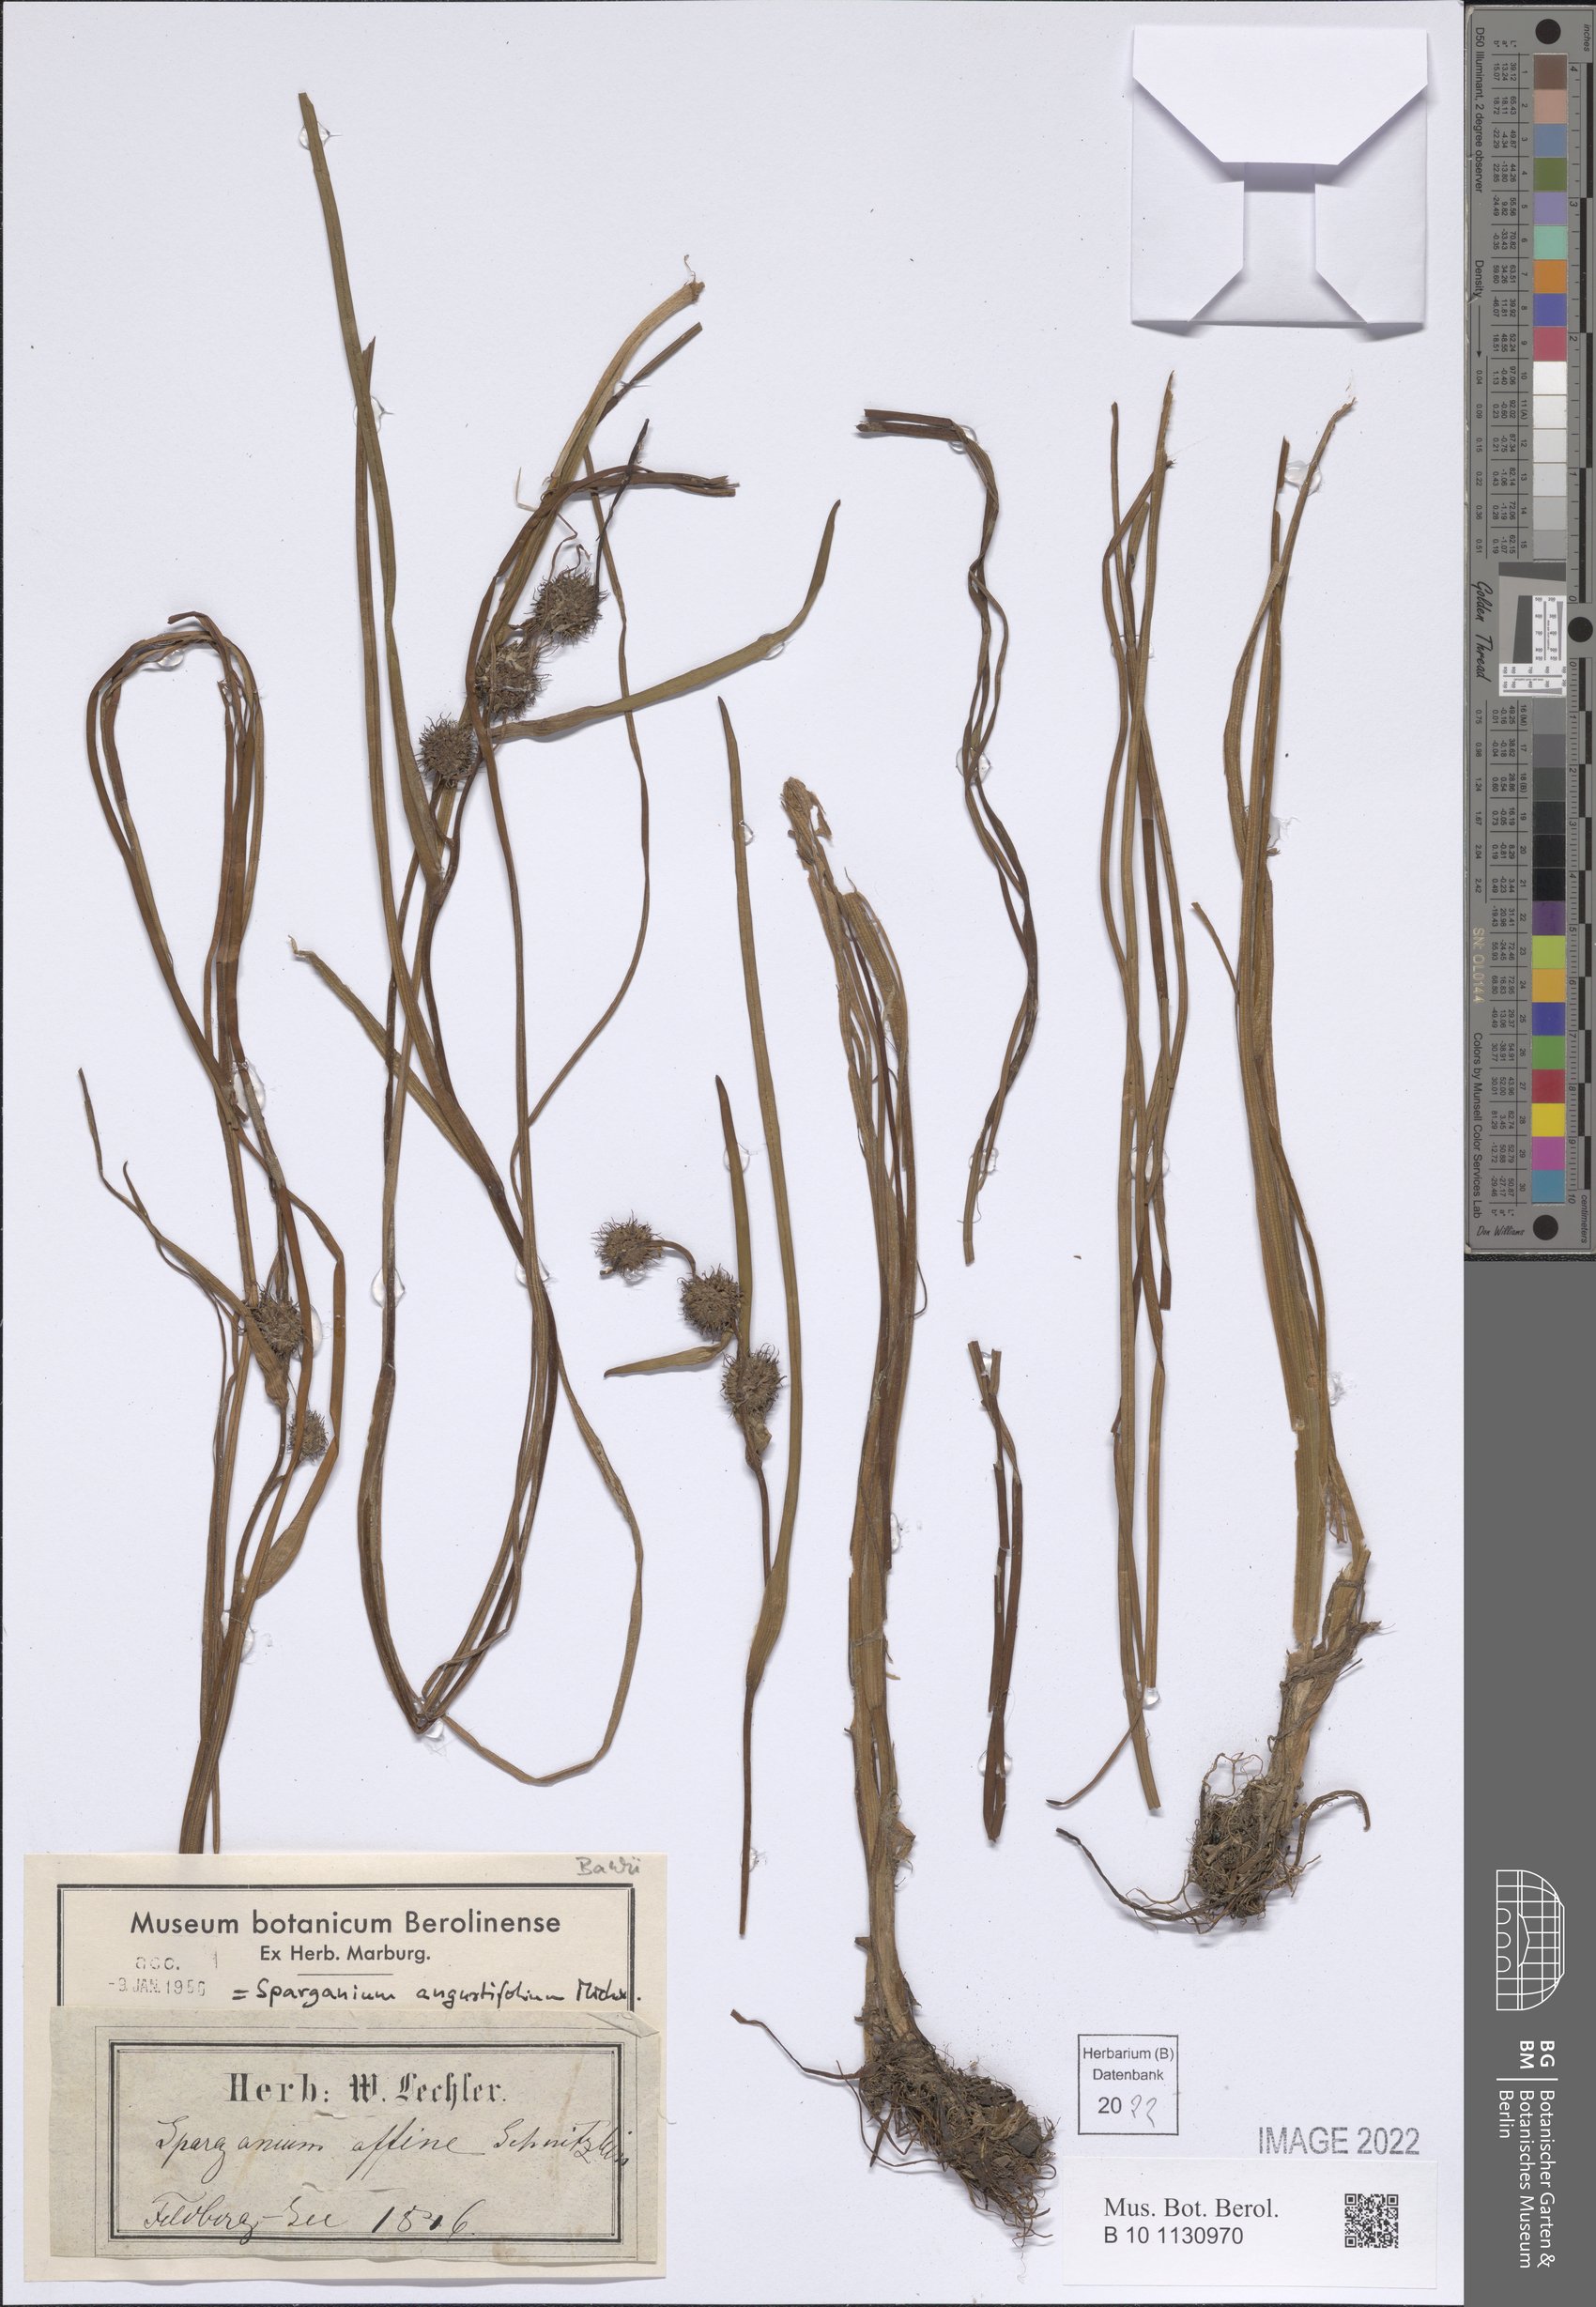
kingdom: Plantae
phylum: Tracheophyta
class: Liliopsida
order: Poales
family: Typhaceae
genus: Sparganium
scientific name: Sparganium angustifolium
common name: Floating bur-reed
